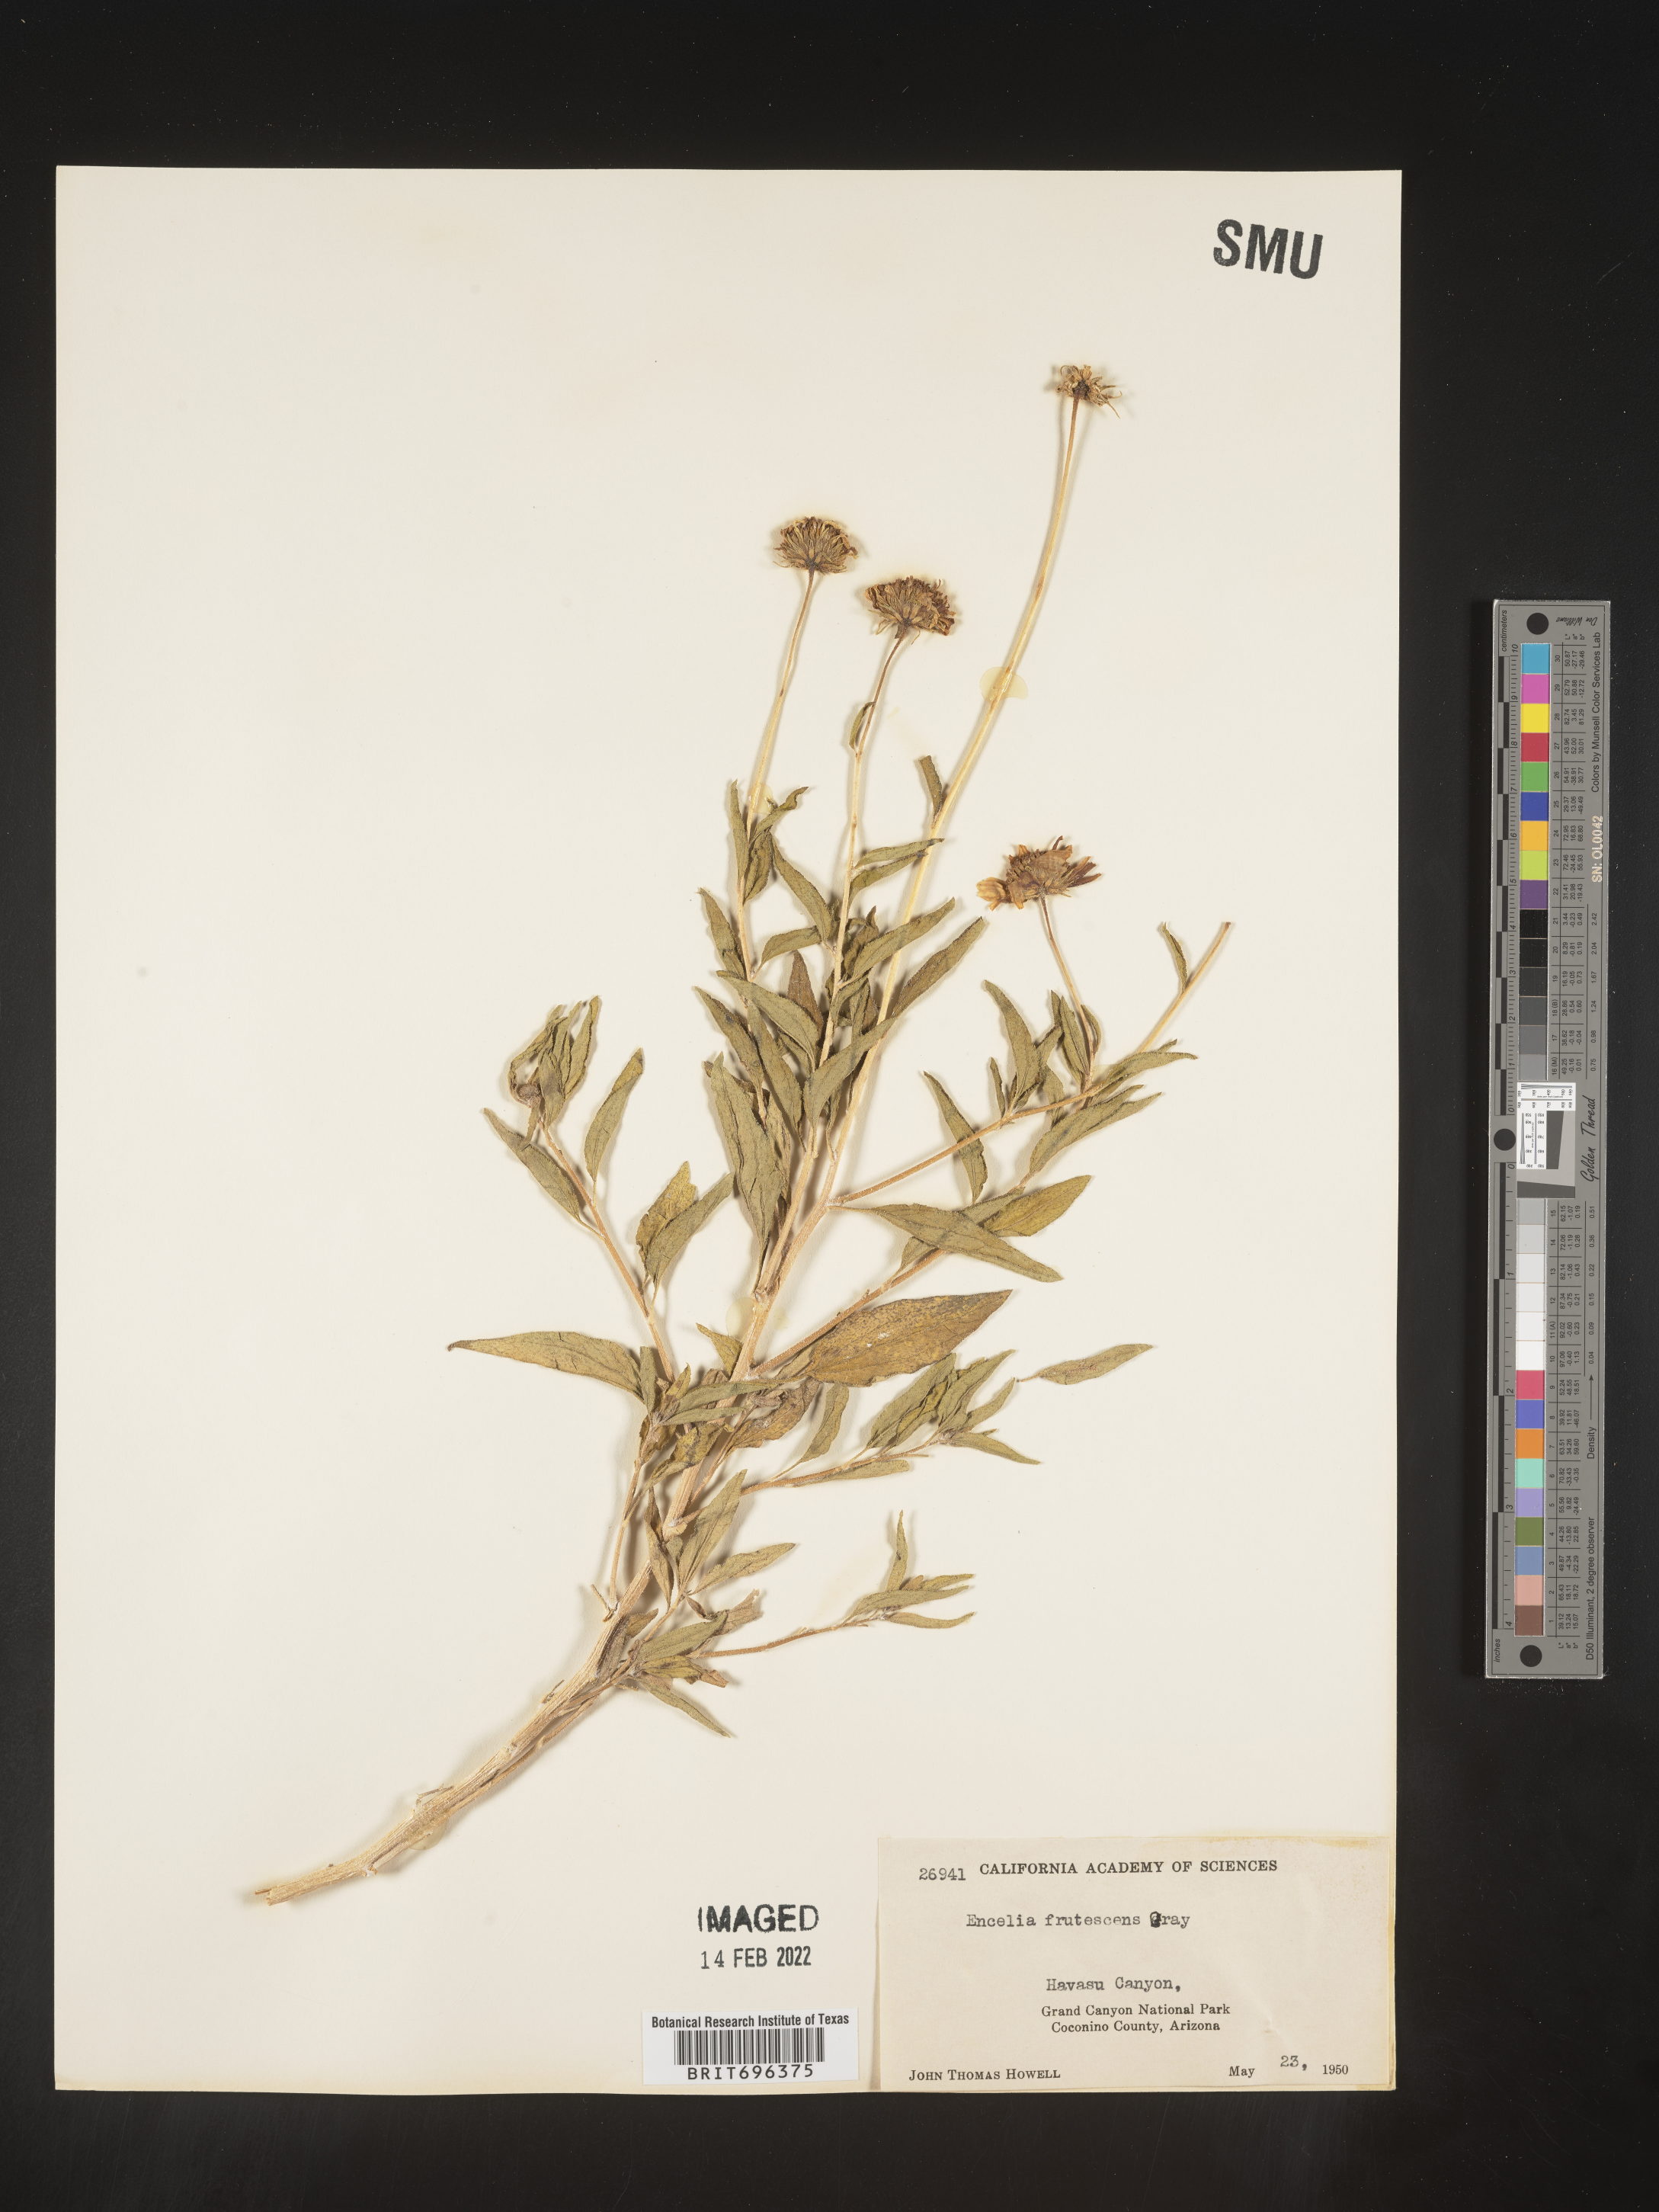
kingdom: Plantae
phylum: Tracheophyta
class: Magnoliopsida
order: Asterales
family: Asteraceae
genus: Encelia
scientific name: Encelia frutescens
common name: Bush encelia
